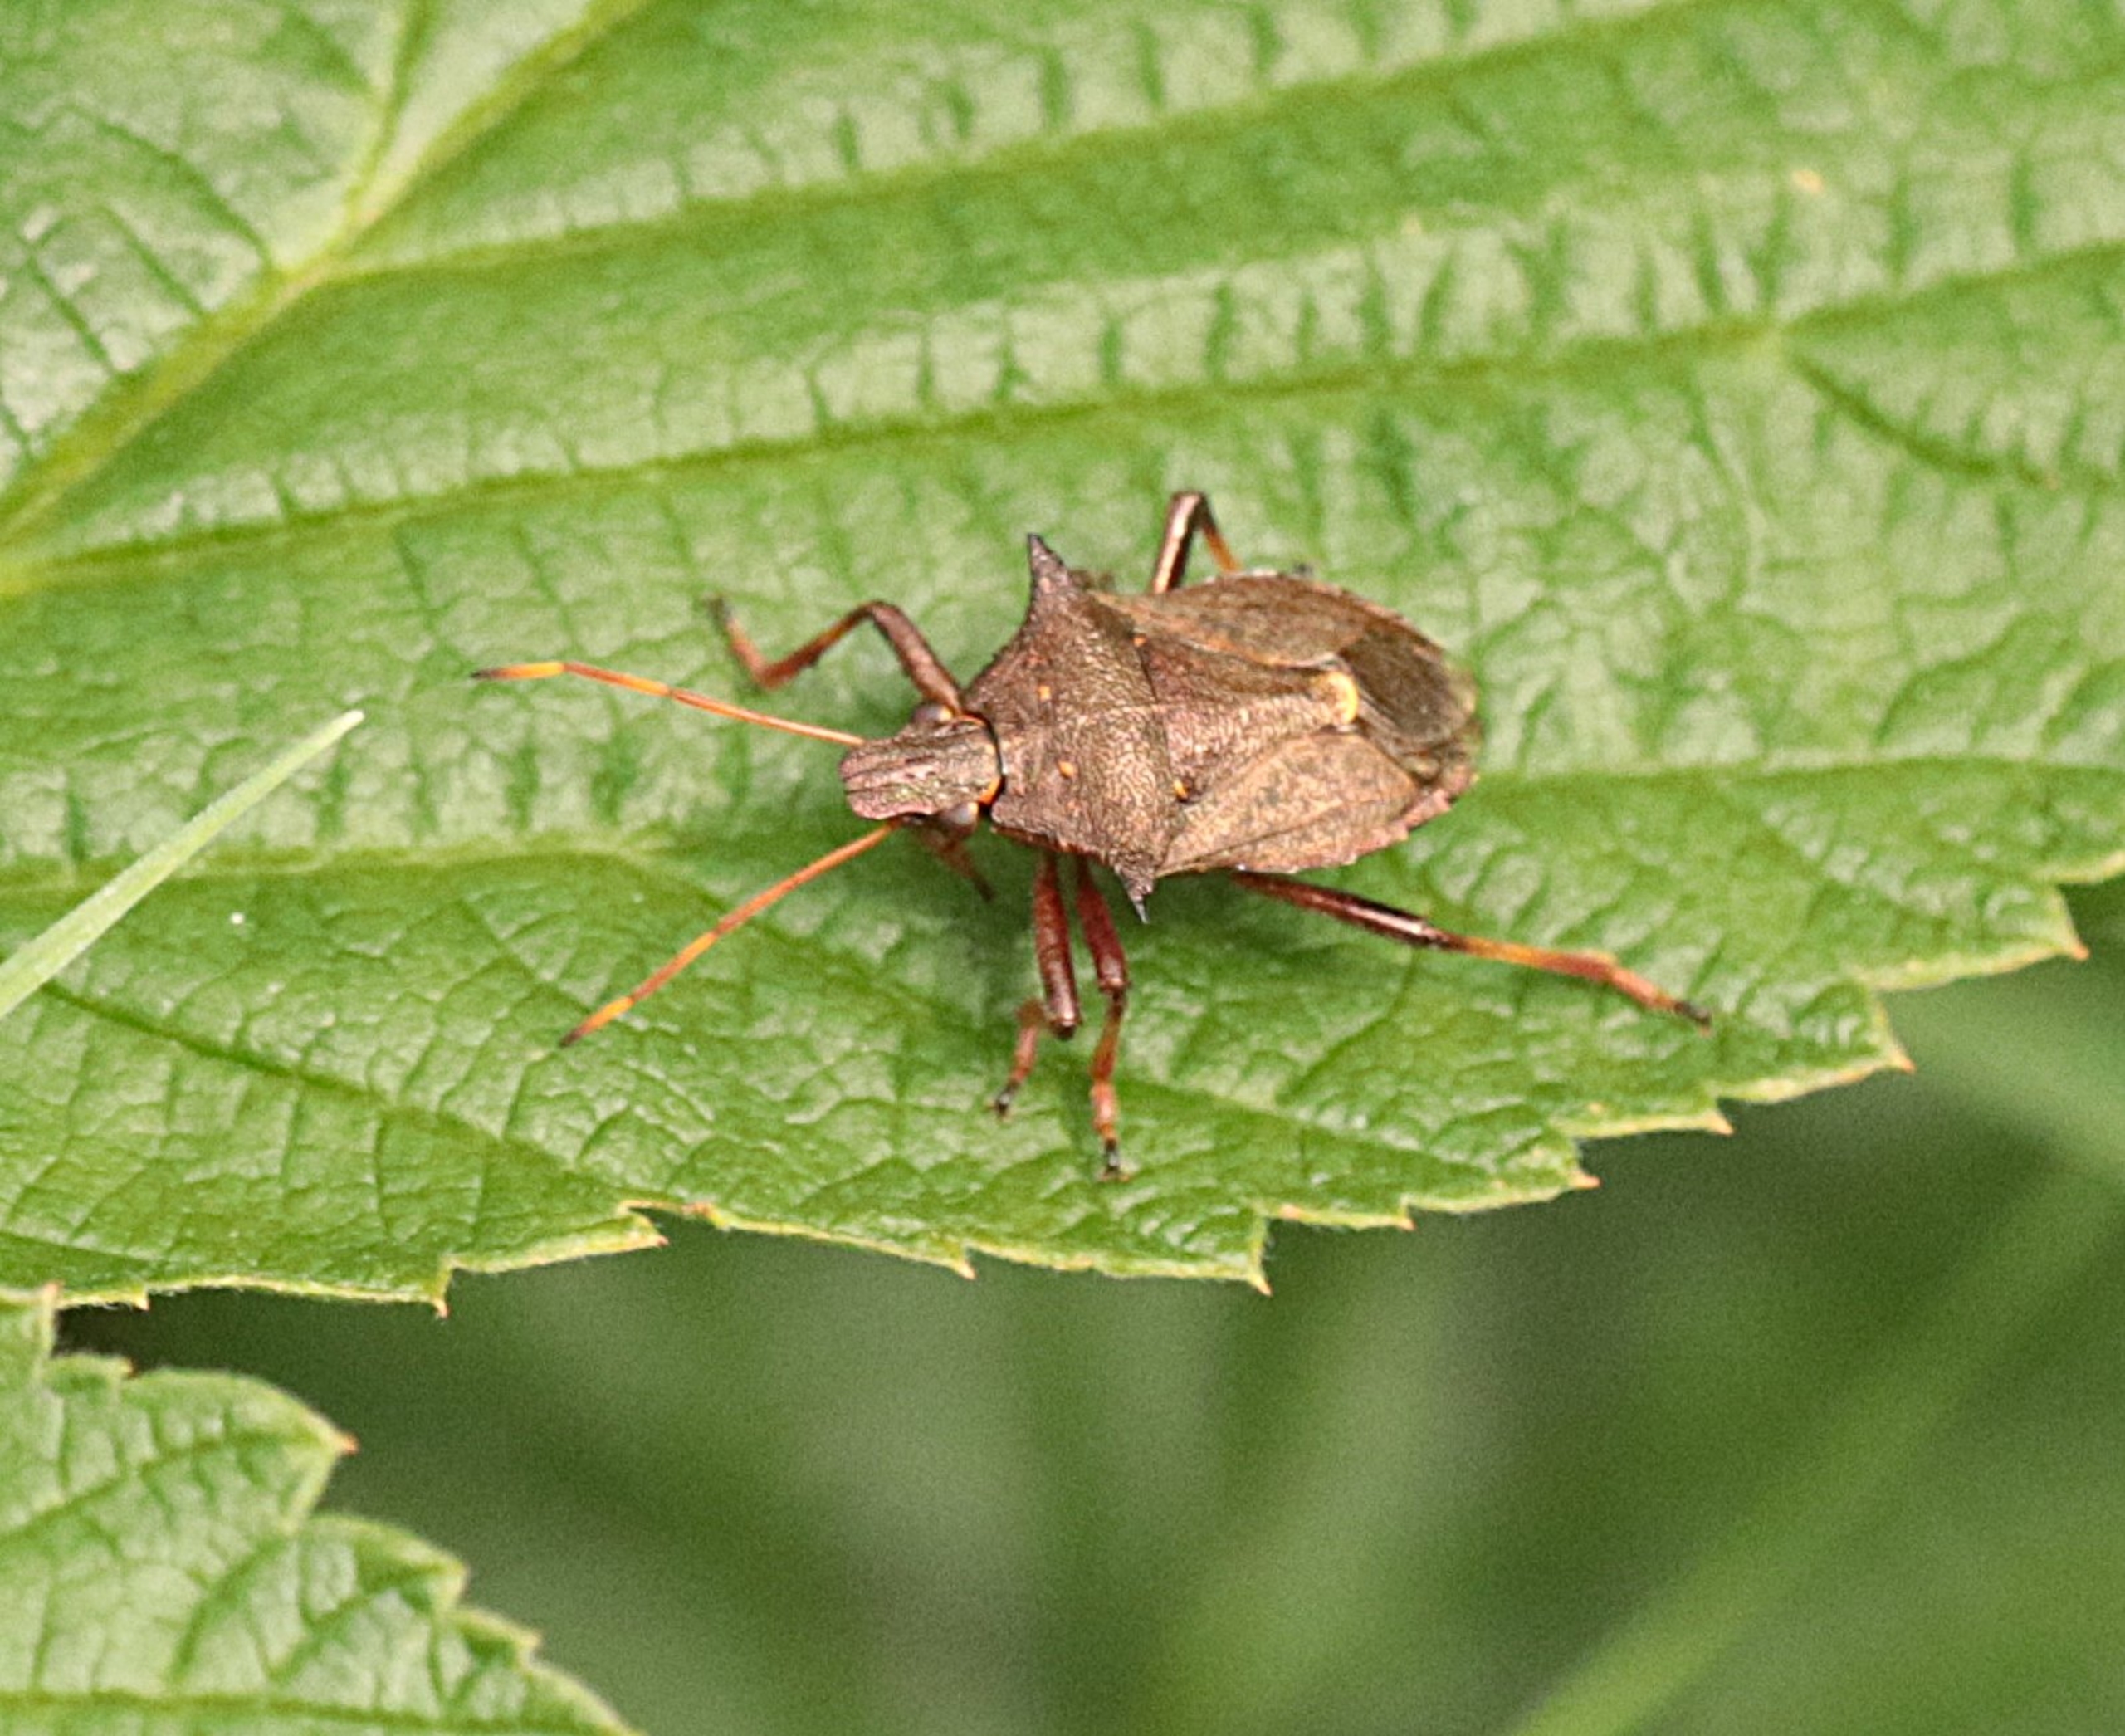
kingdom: Animalia
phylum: Arthropoda
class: Insecta
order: Hemiptera
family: Pentatomidae
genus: Picromerus
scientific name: Picromerus bidens
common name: Torntæge
